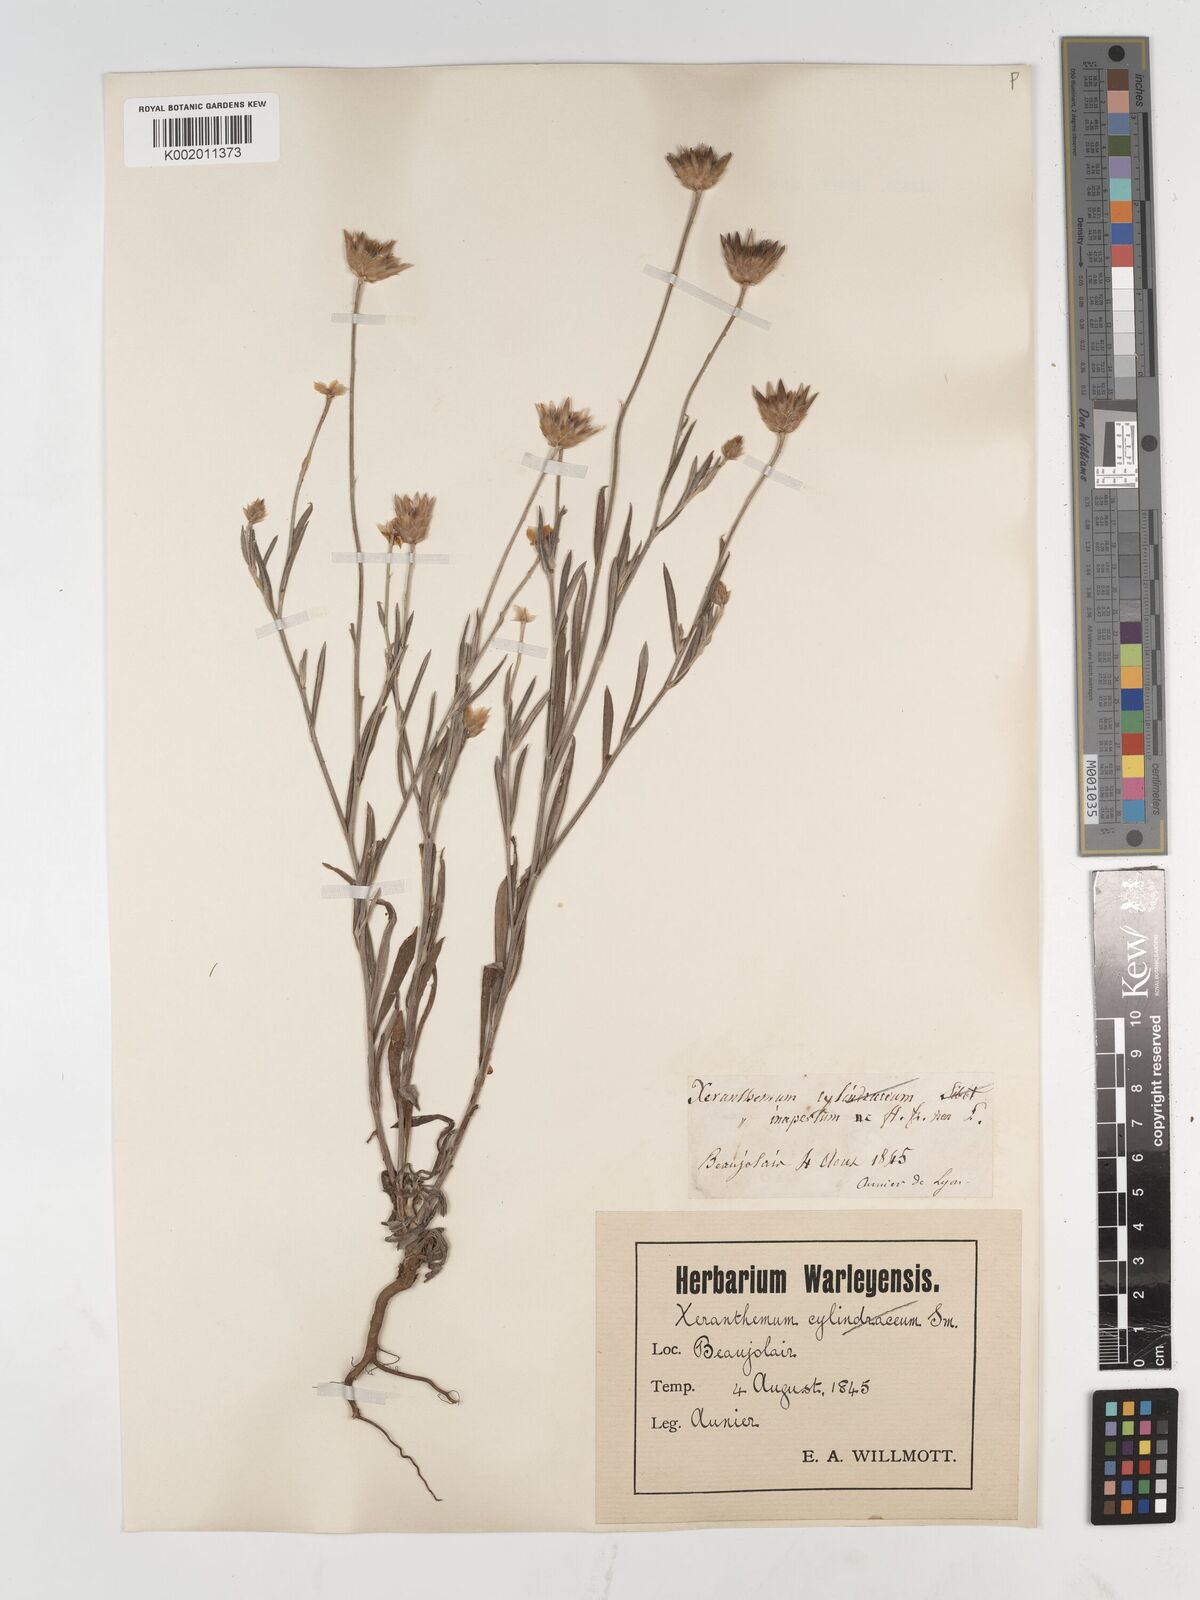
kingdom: Plantae
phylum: Tracheophyta
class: Magnoliopsida
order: Asterales
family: Asteraceae
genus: Xeranthemum
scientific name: Xeranthemum inapertum
